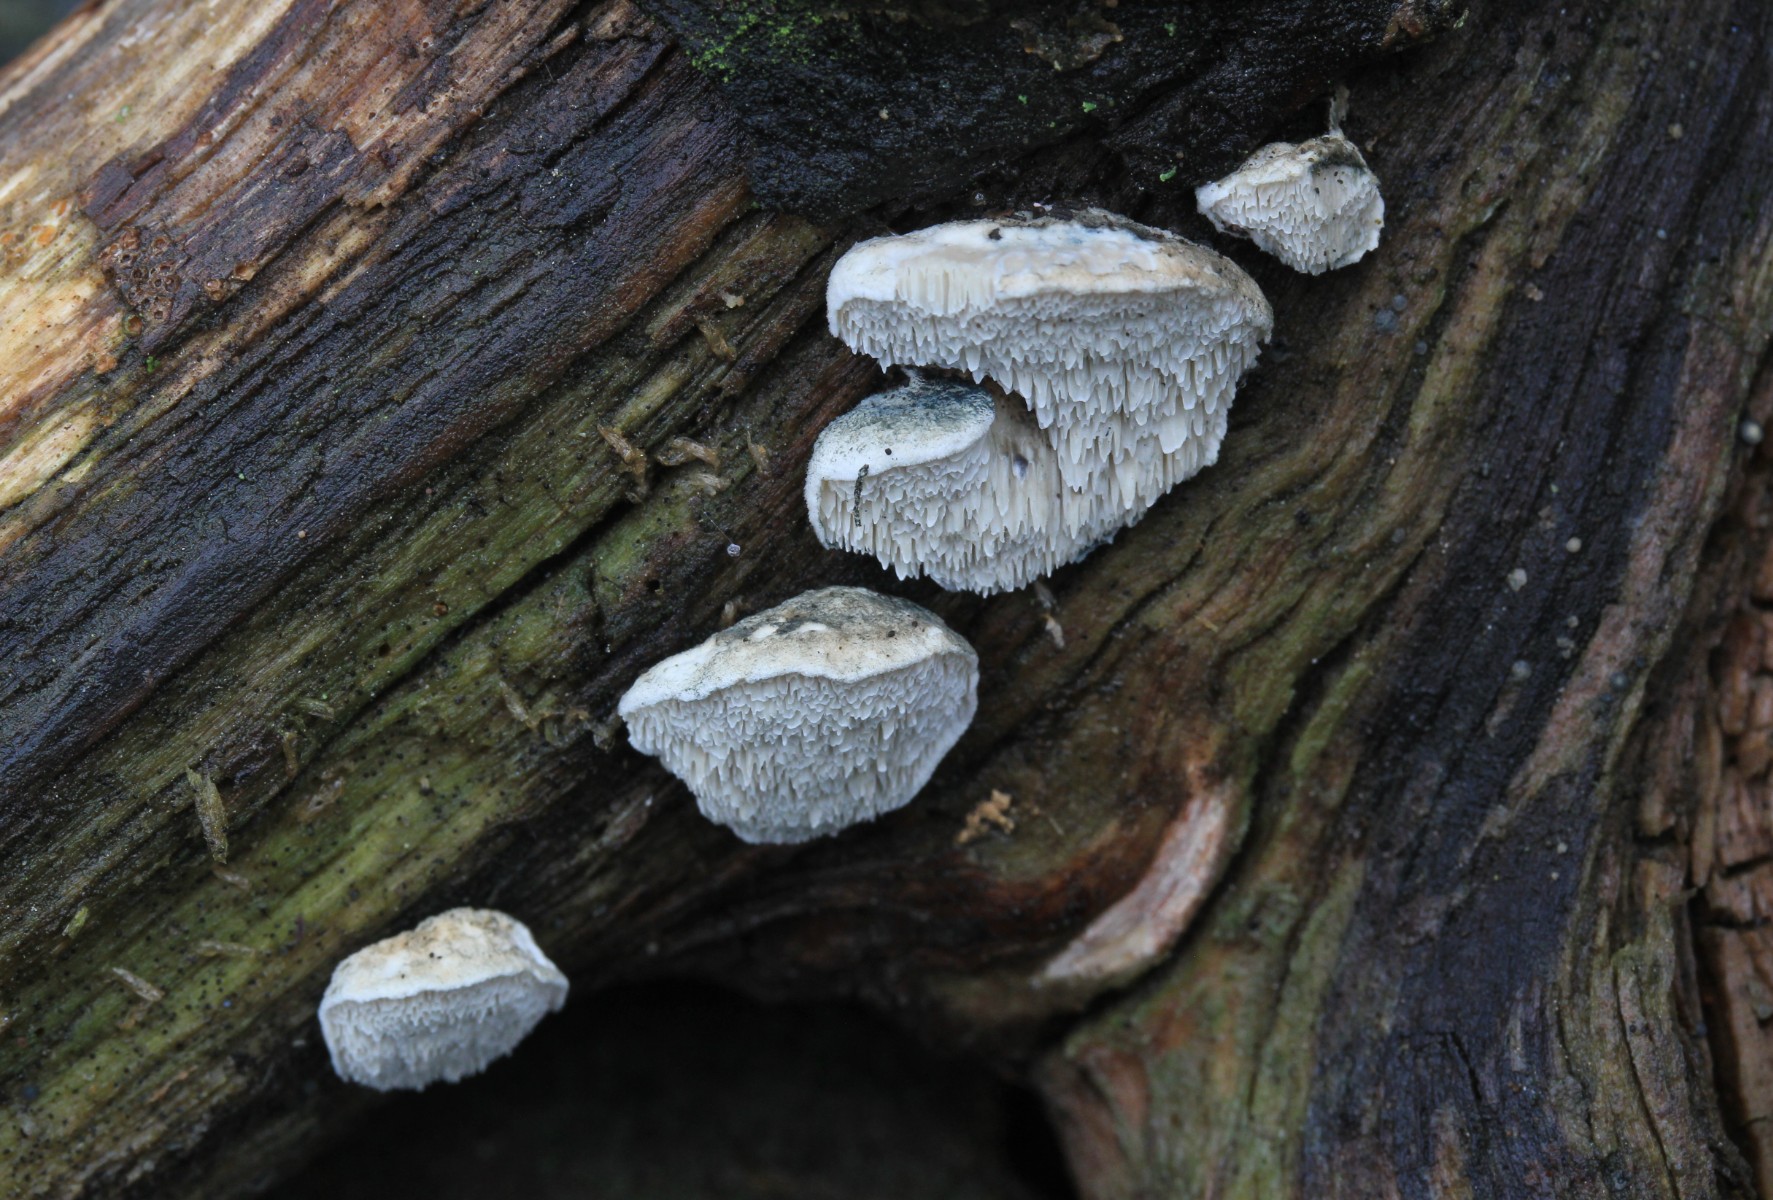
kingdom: Fungi
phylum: Basidiomycota
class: Agaricomycetes
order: Polyporales
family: Polyporaceae
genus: Cyanosporus
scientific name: Cyanosporus alni
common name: blegblå kødporesvamp
